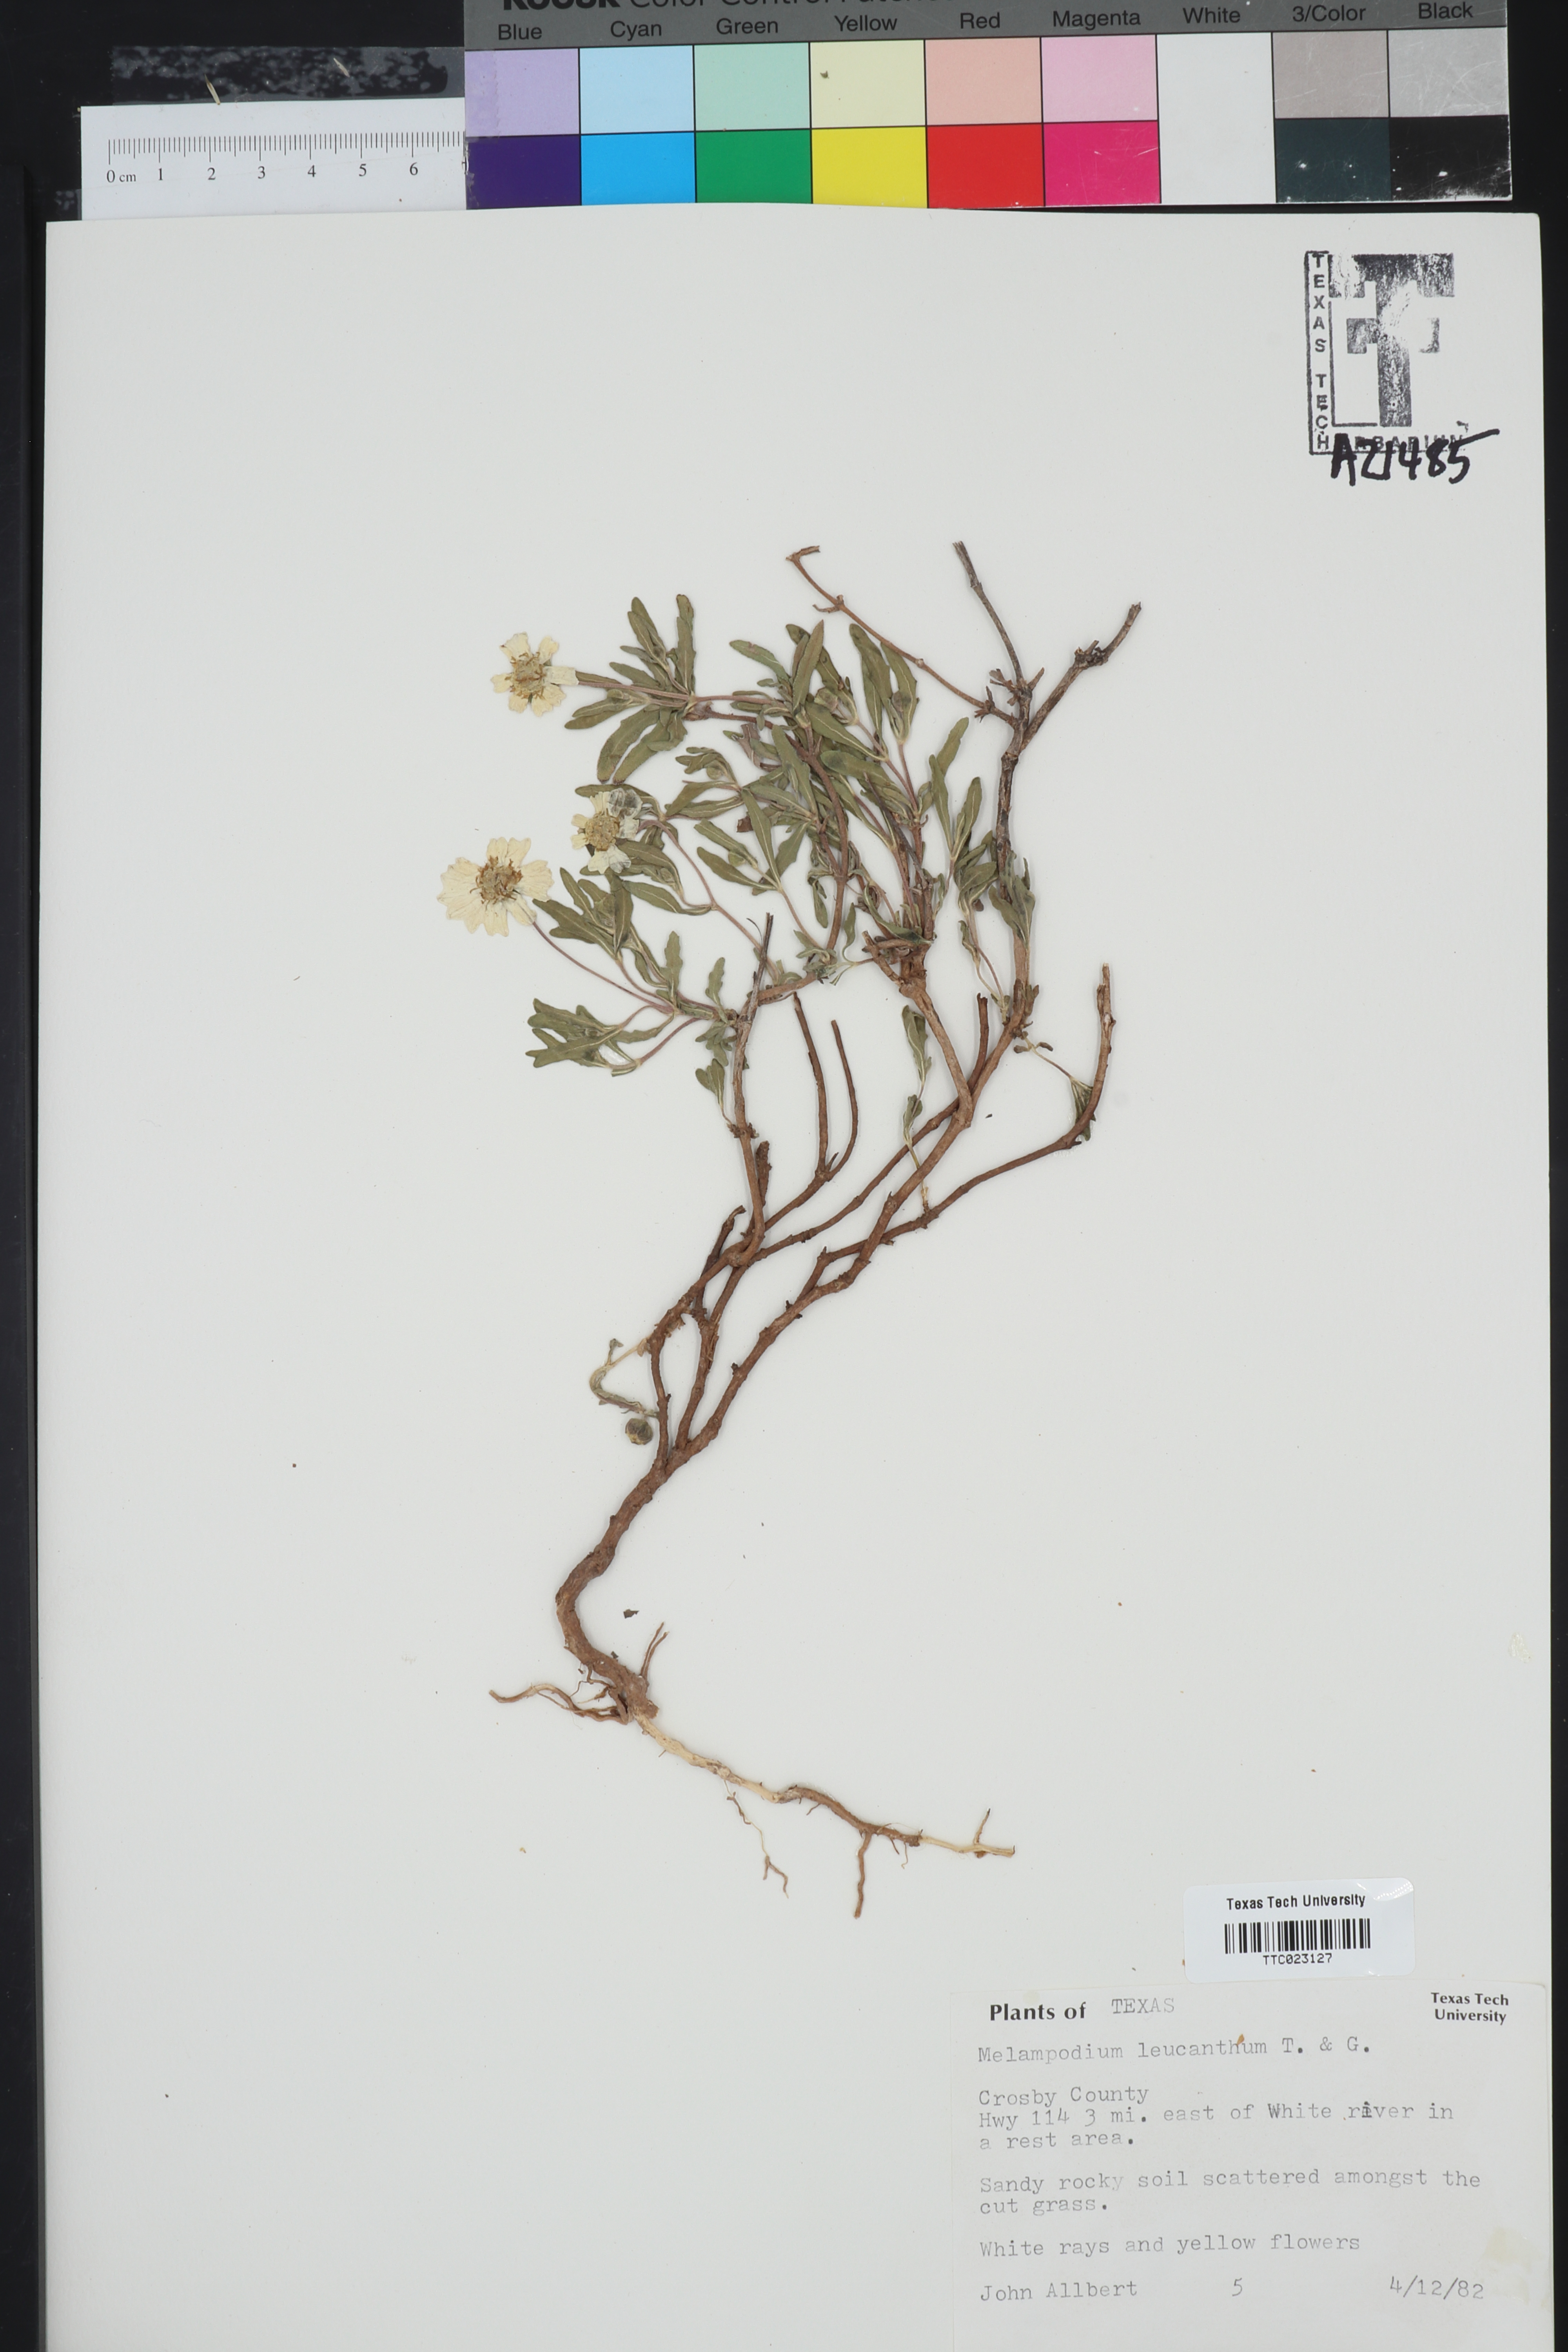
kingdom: Plantae
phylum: Tracheophyta
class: Magnoliopsida
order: Asterales
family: Asteraceae
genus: Melampodium
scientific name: Melampodium leucanthum
